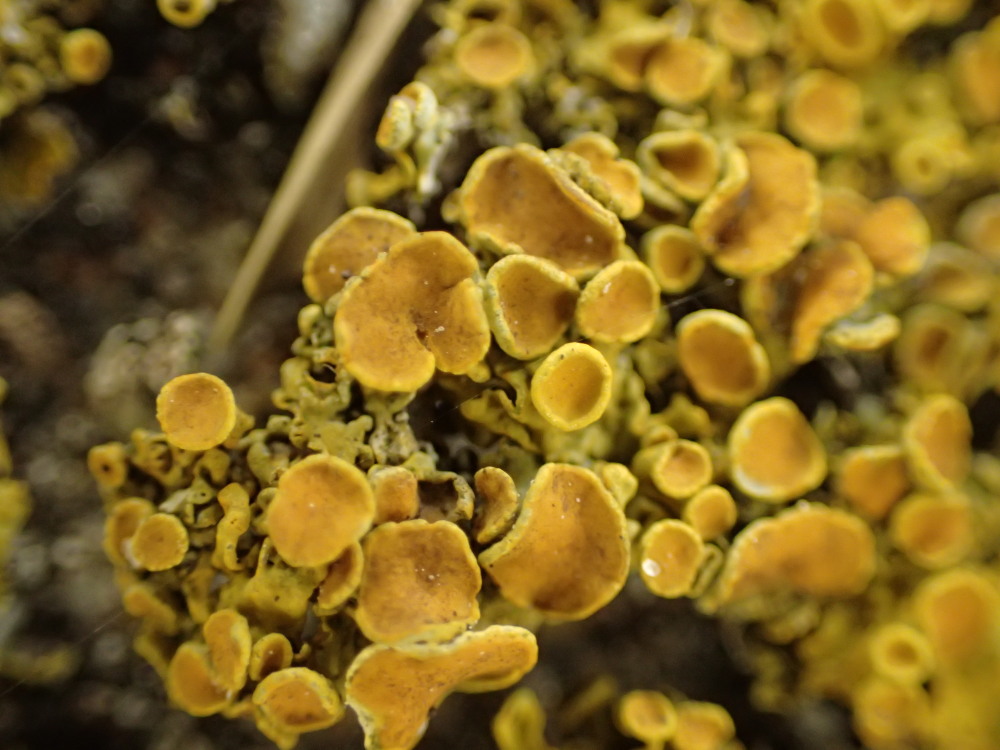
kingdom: Fungi
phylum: Ascomycota
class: Lecanoromycetes
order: Teloschistales
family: Teloschistaceae
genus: Xanthoria
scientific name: Xanthoria parietina
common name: almindelig væggelav
